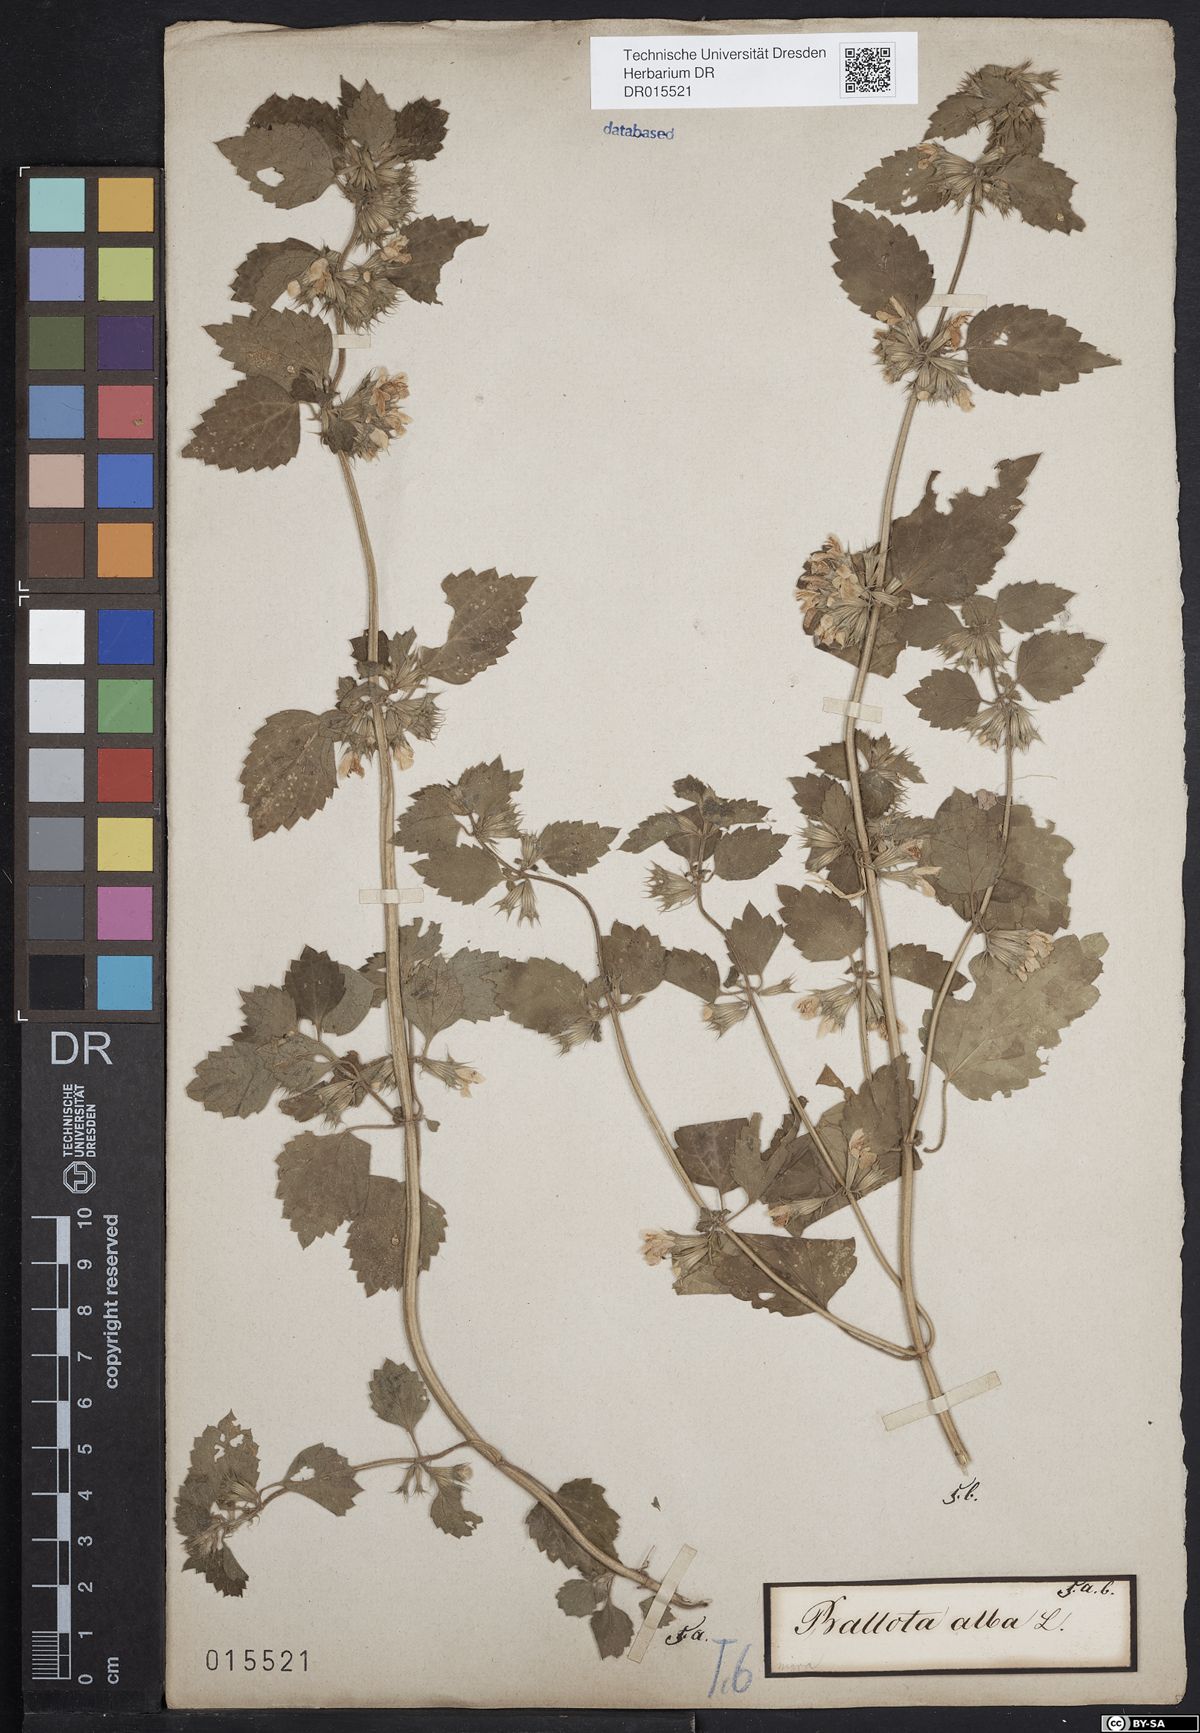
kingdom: Plantae
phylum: Tracheophyta
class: Magnoliopsida
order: Lamiales
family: Lamiaceae
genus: Ballota
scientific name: Ballota nigra
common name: Black horehound
